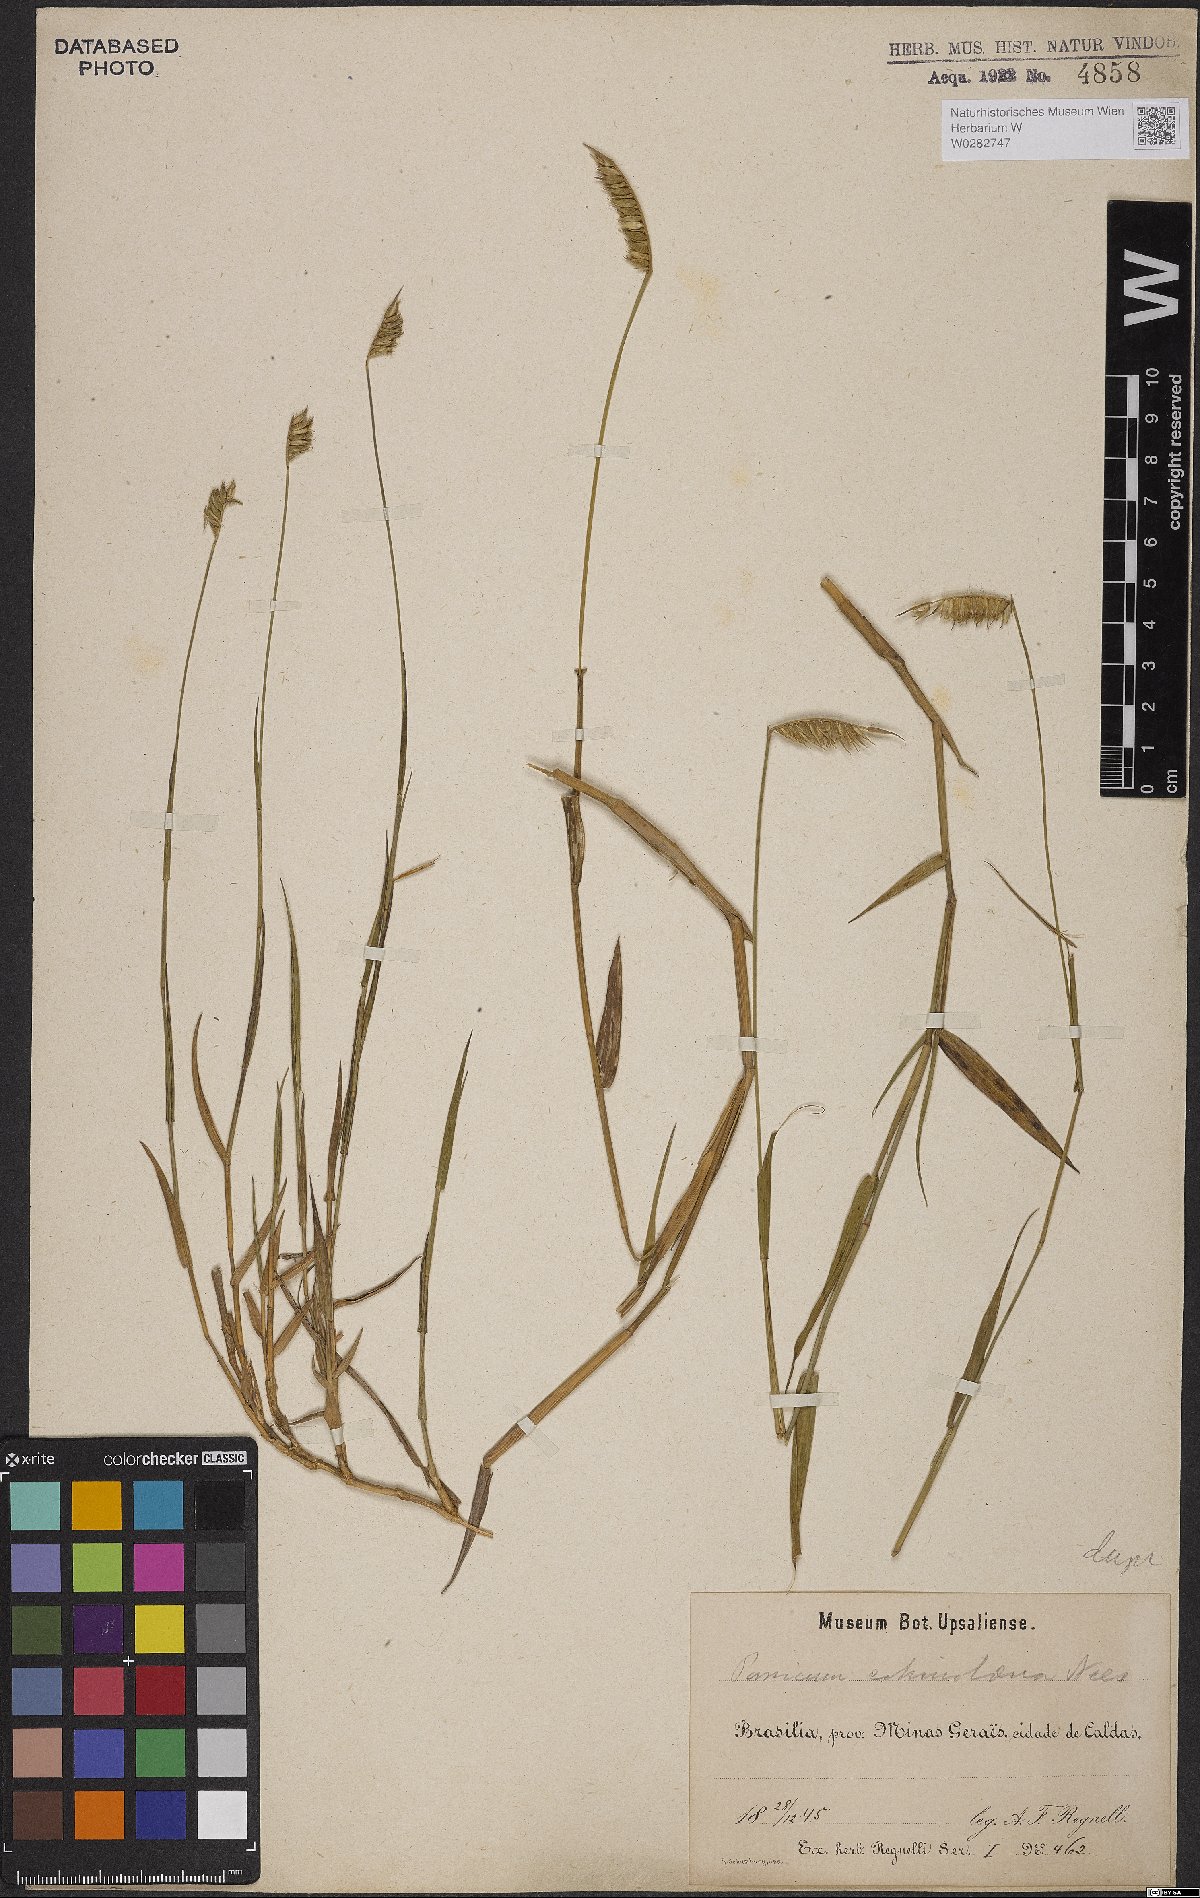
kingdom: Plantae
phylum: Tracheophyta
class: Liliopsida
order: Poales
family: Poaceae
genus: Echinolaena
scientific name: Echinolaena inflexa
